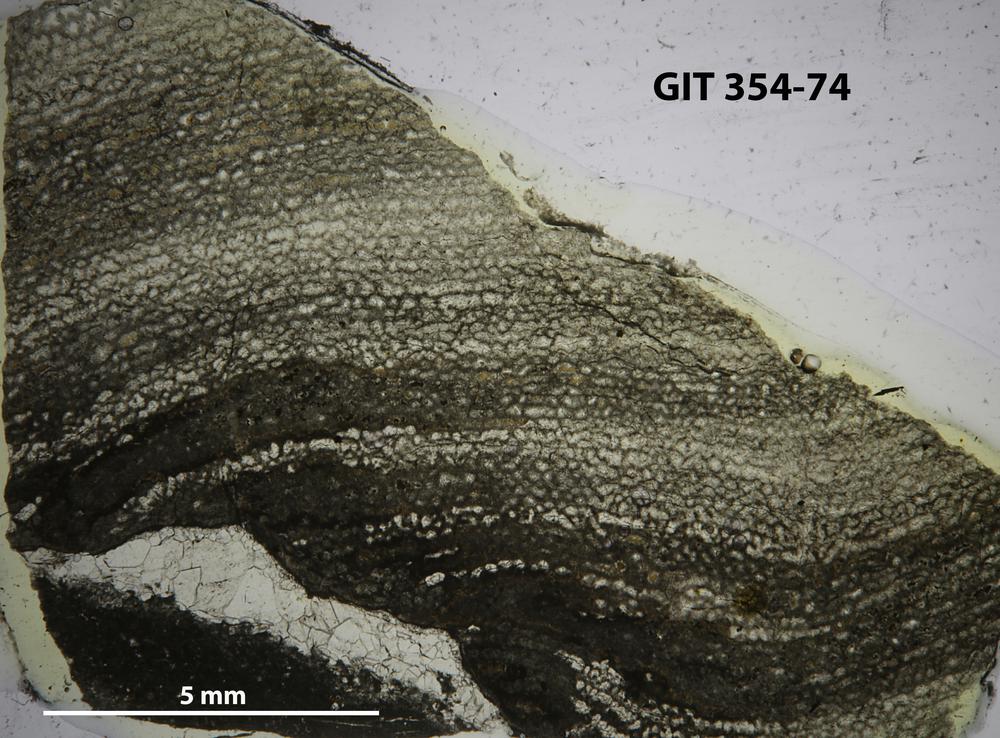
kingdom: Animalia
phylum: Porifera
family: Ecclimadictyidae
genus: Ecclimadictyon
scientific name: Ecclimadictyon porkuni
